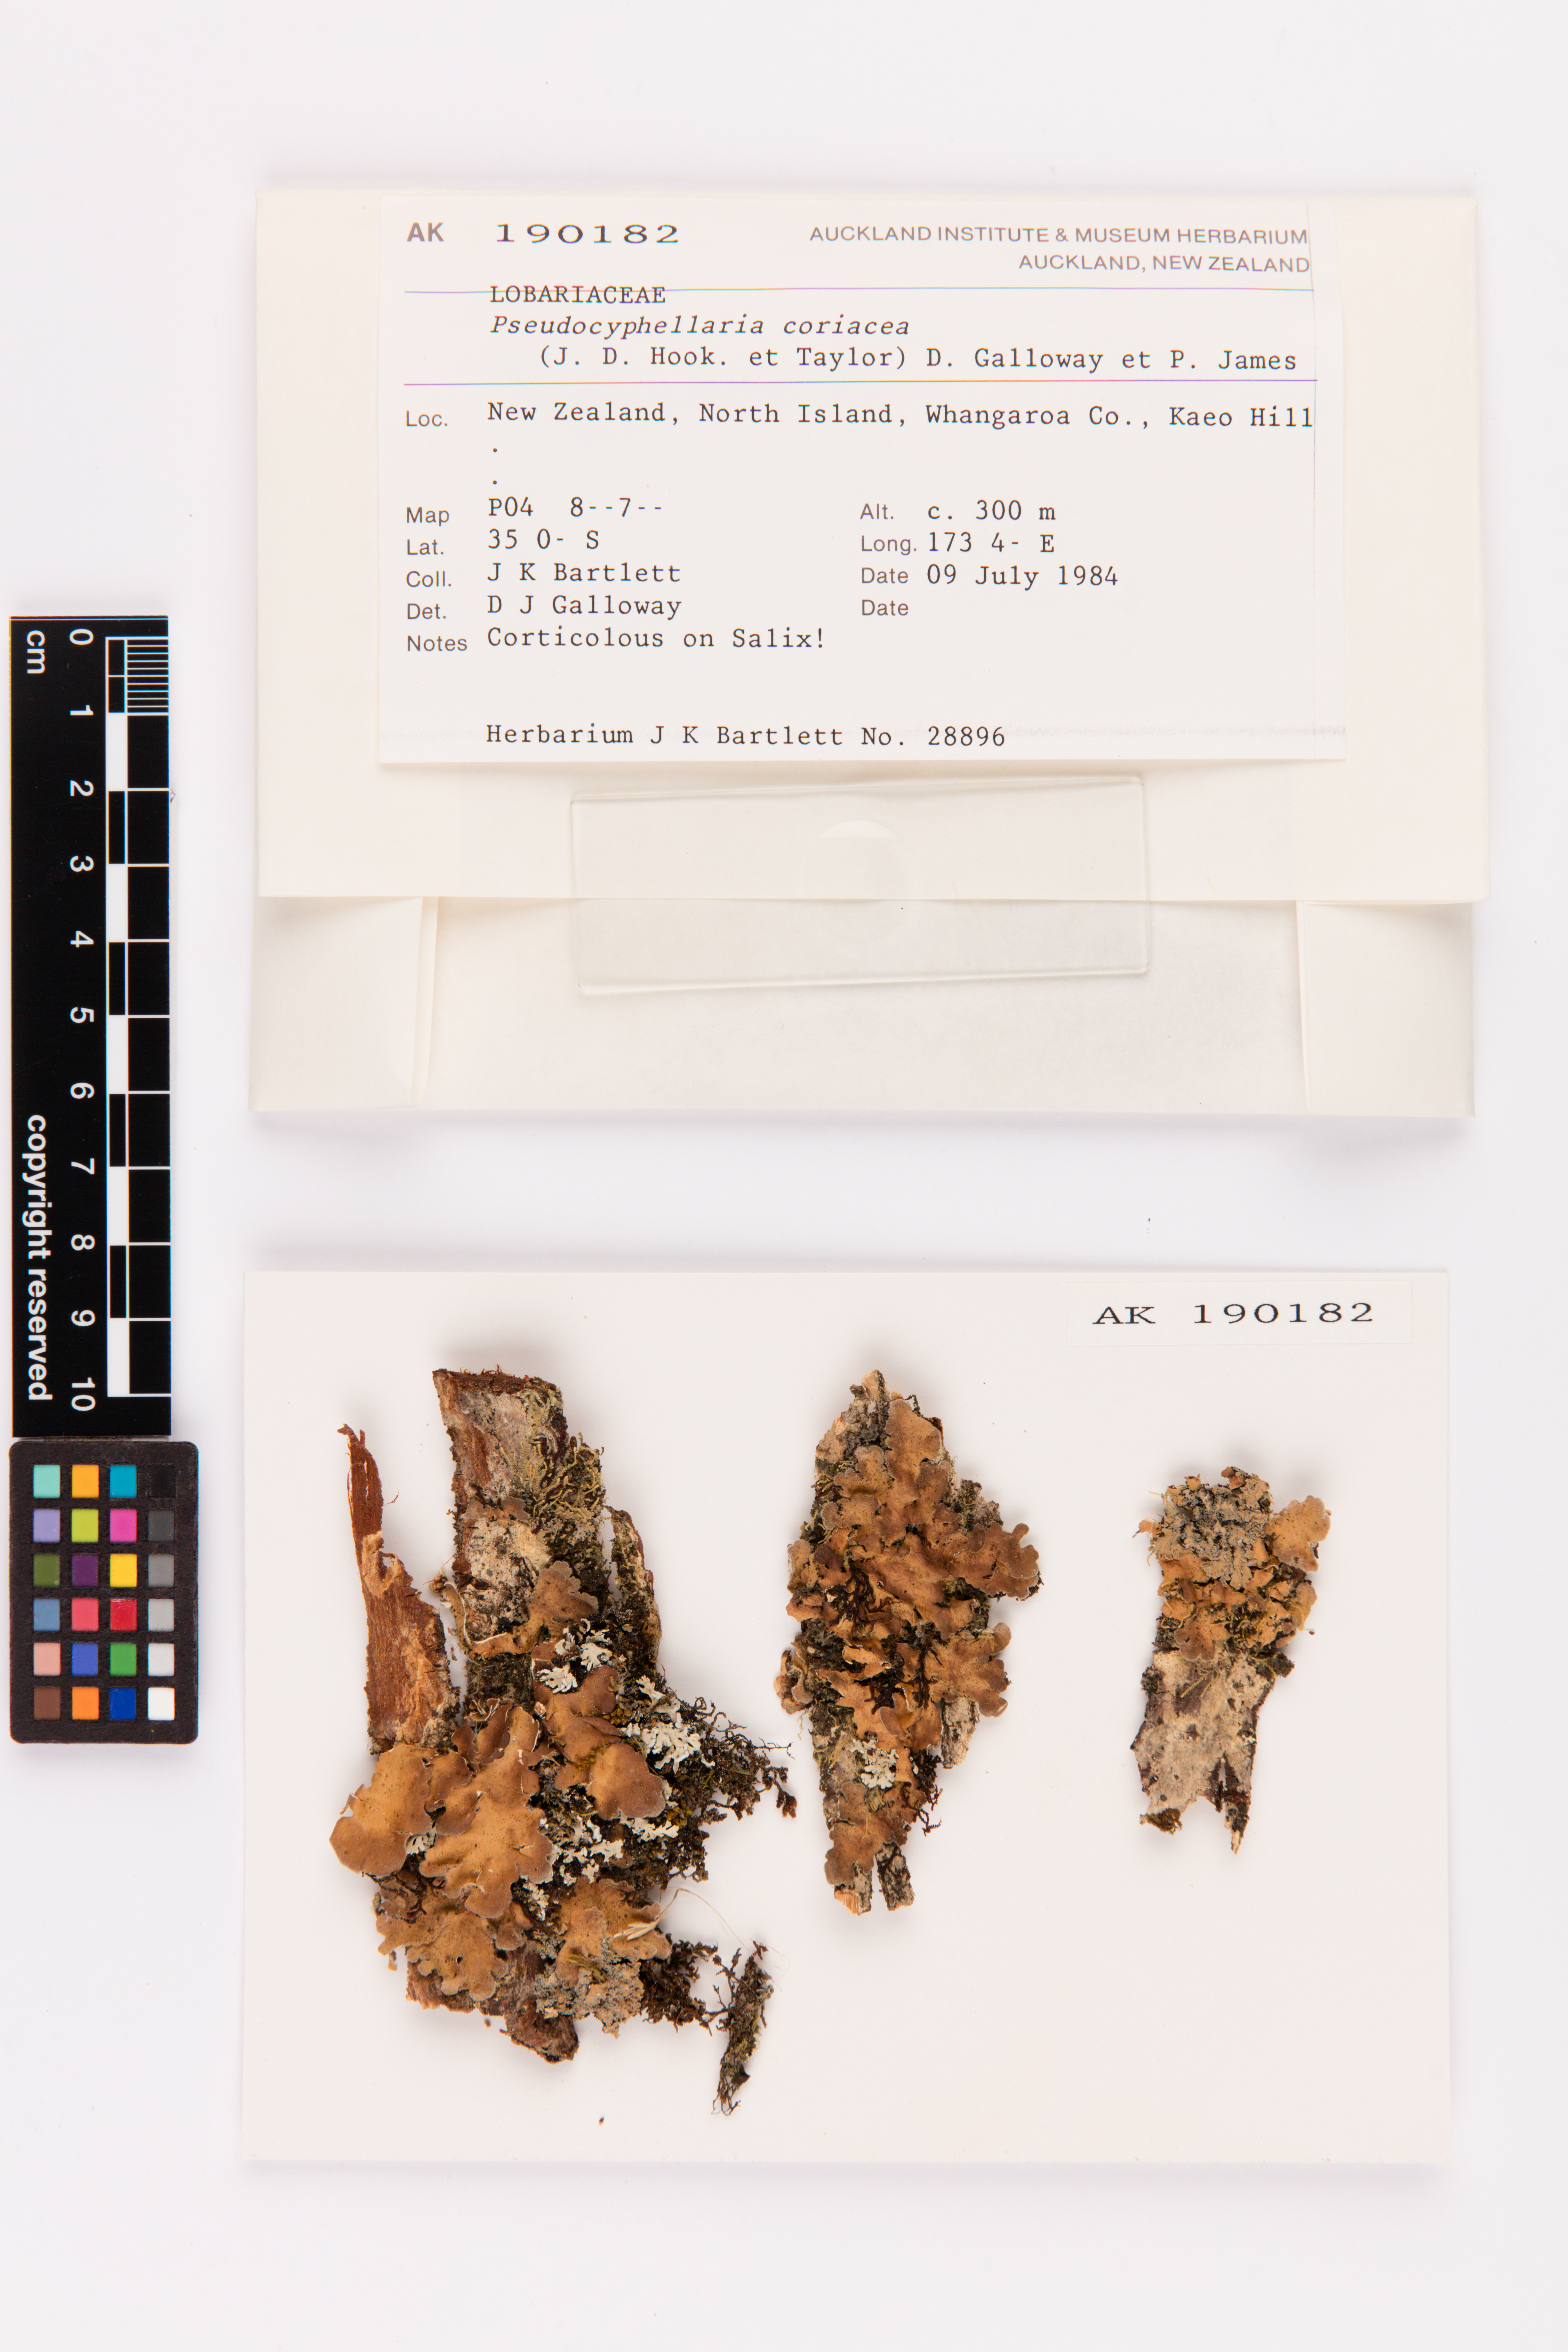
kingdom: Fungi
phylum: Ascomycota
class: Lecanoromycetes
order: Peltigerales
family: Lobariaceae
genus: Pseudocyphellaria
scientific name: Pseudocyphellaria coriacea
